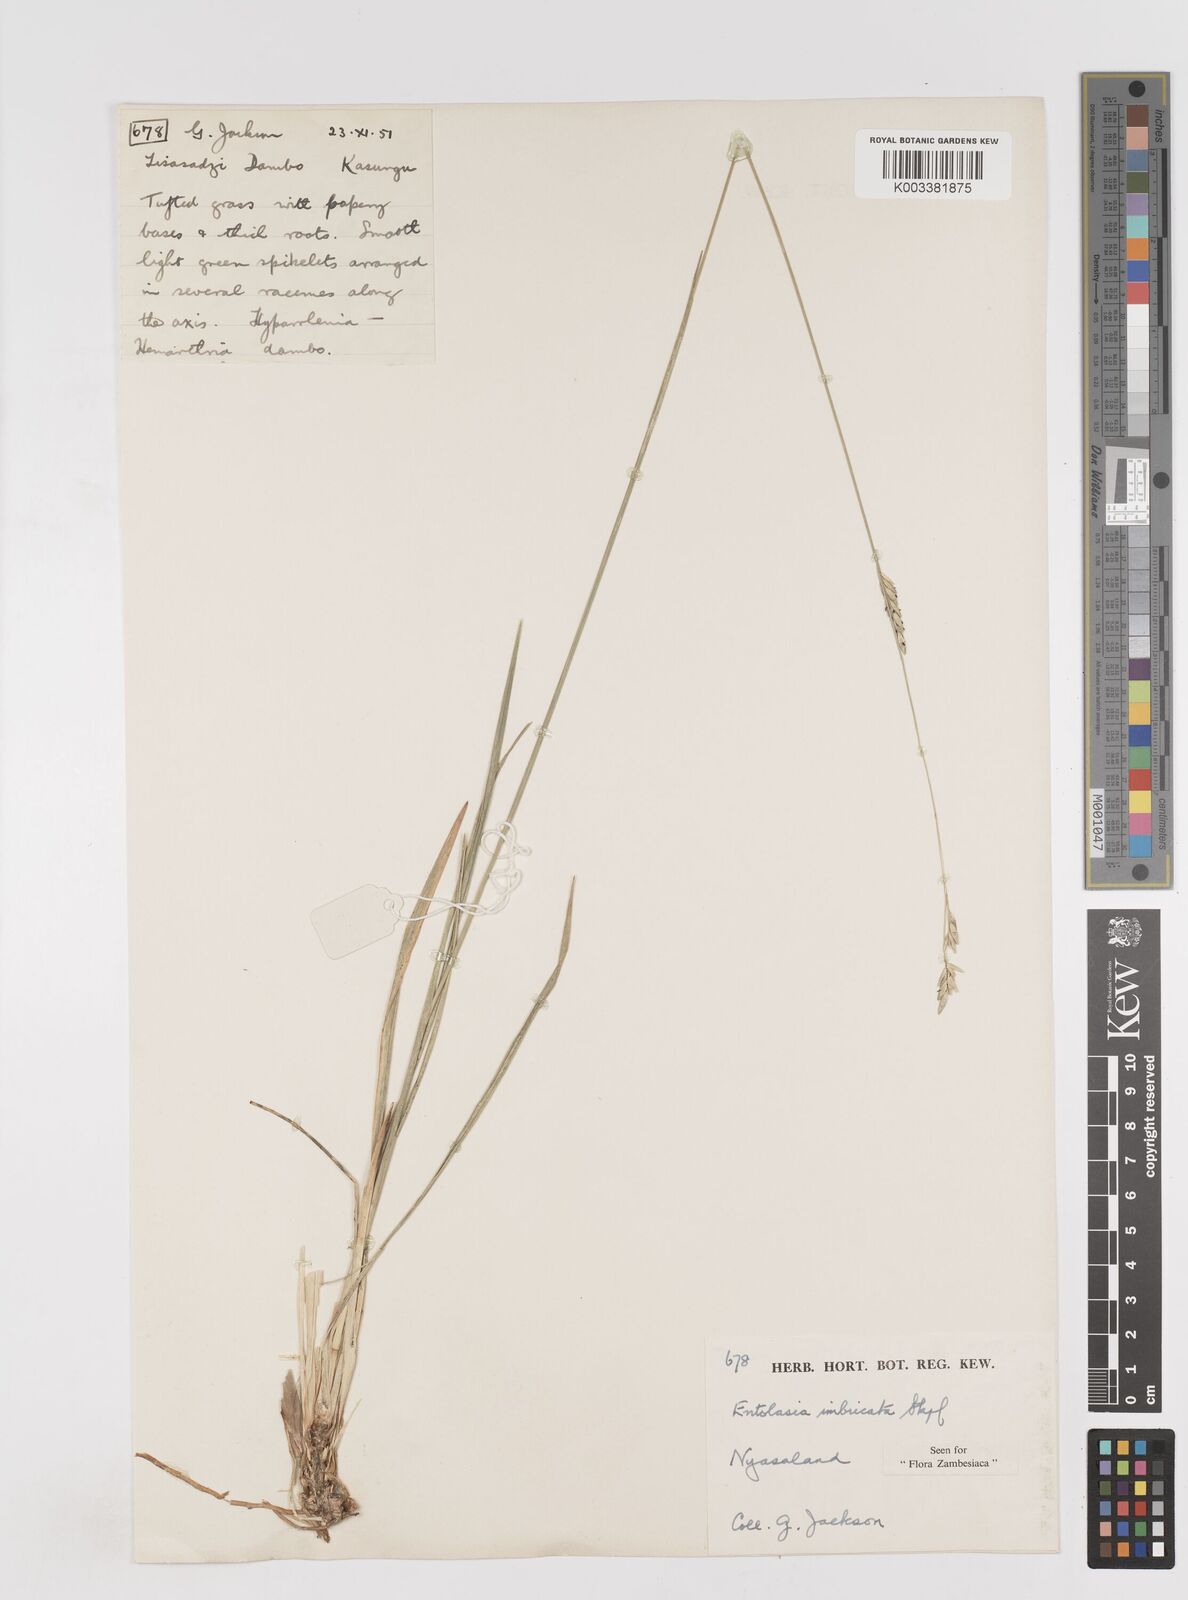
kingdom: Plantae
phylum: Tracheophyta
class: Liliopsida
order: Poales
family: Poaceae
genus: Entolasia
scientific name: Entolasia imbricata
